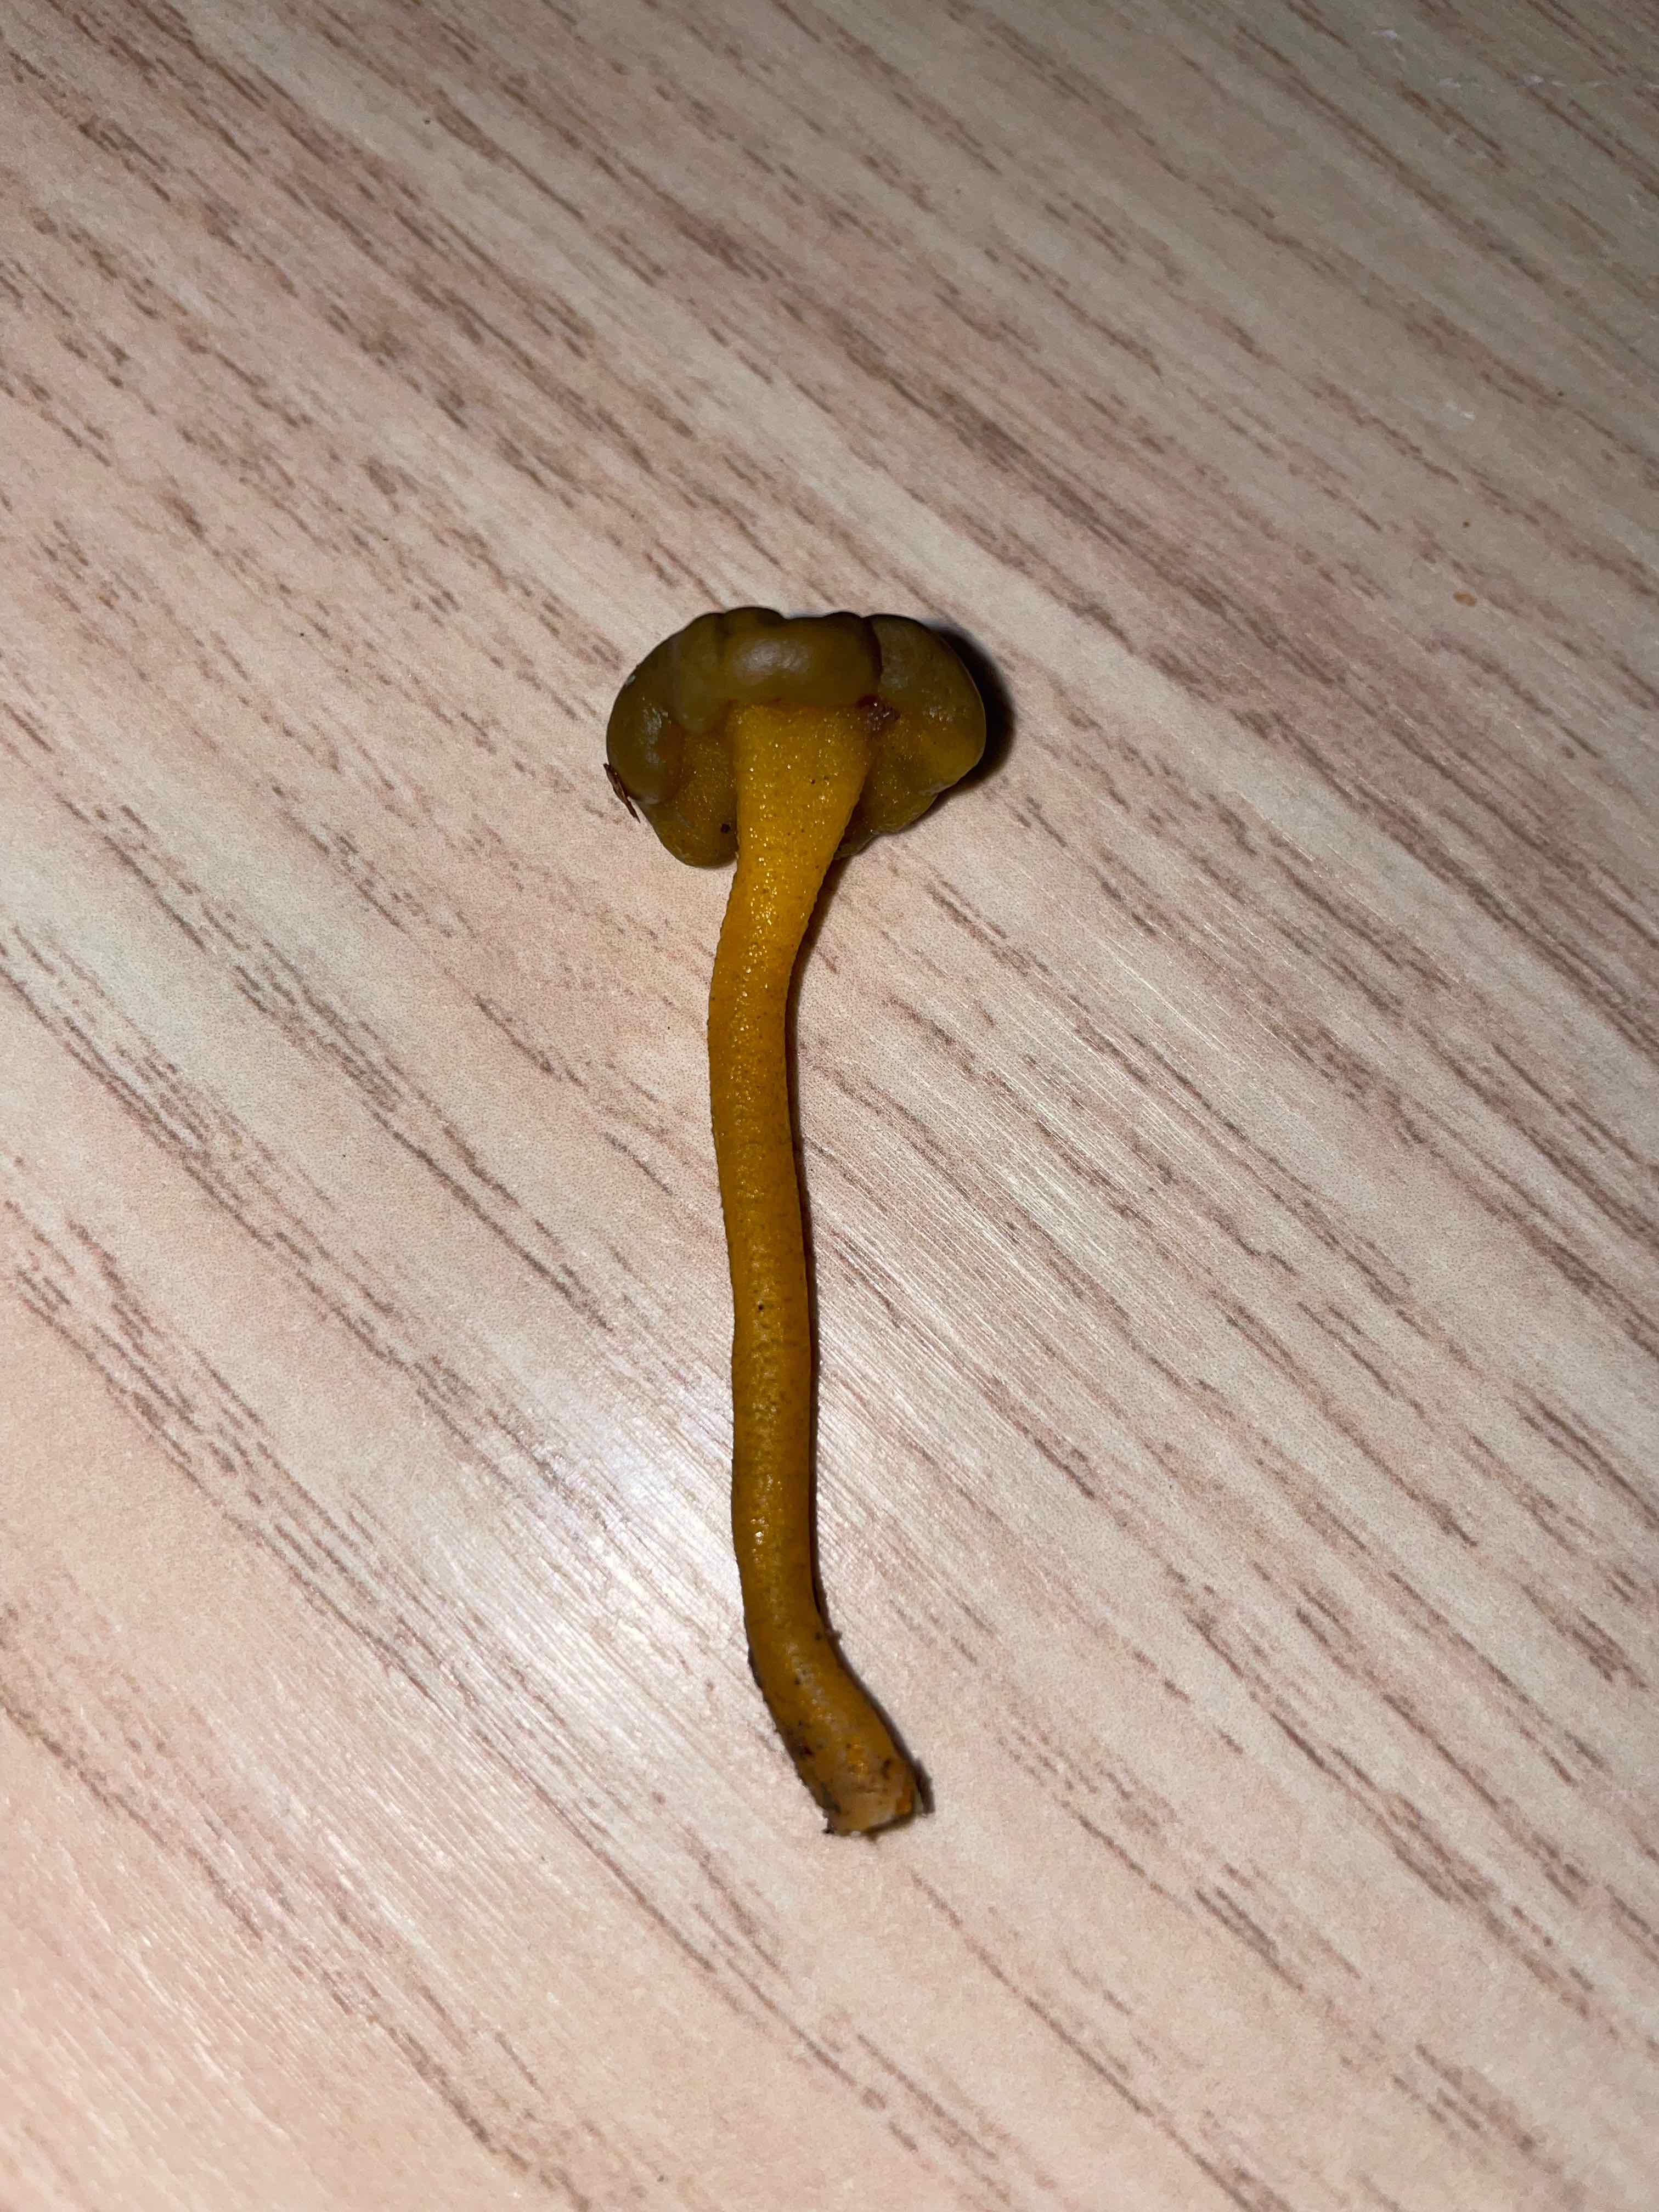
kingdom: Fungi
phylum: Ascomycota
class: Leotiomycetes
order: Leotiales
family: Leotiaceae
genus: Leotia
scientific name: Leotia lubrica
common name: ravsvamp
